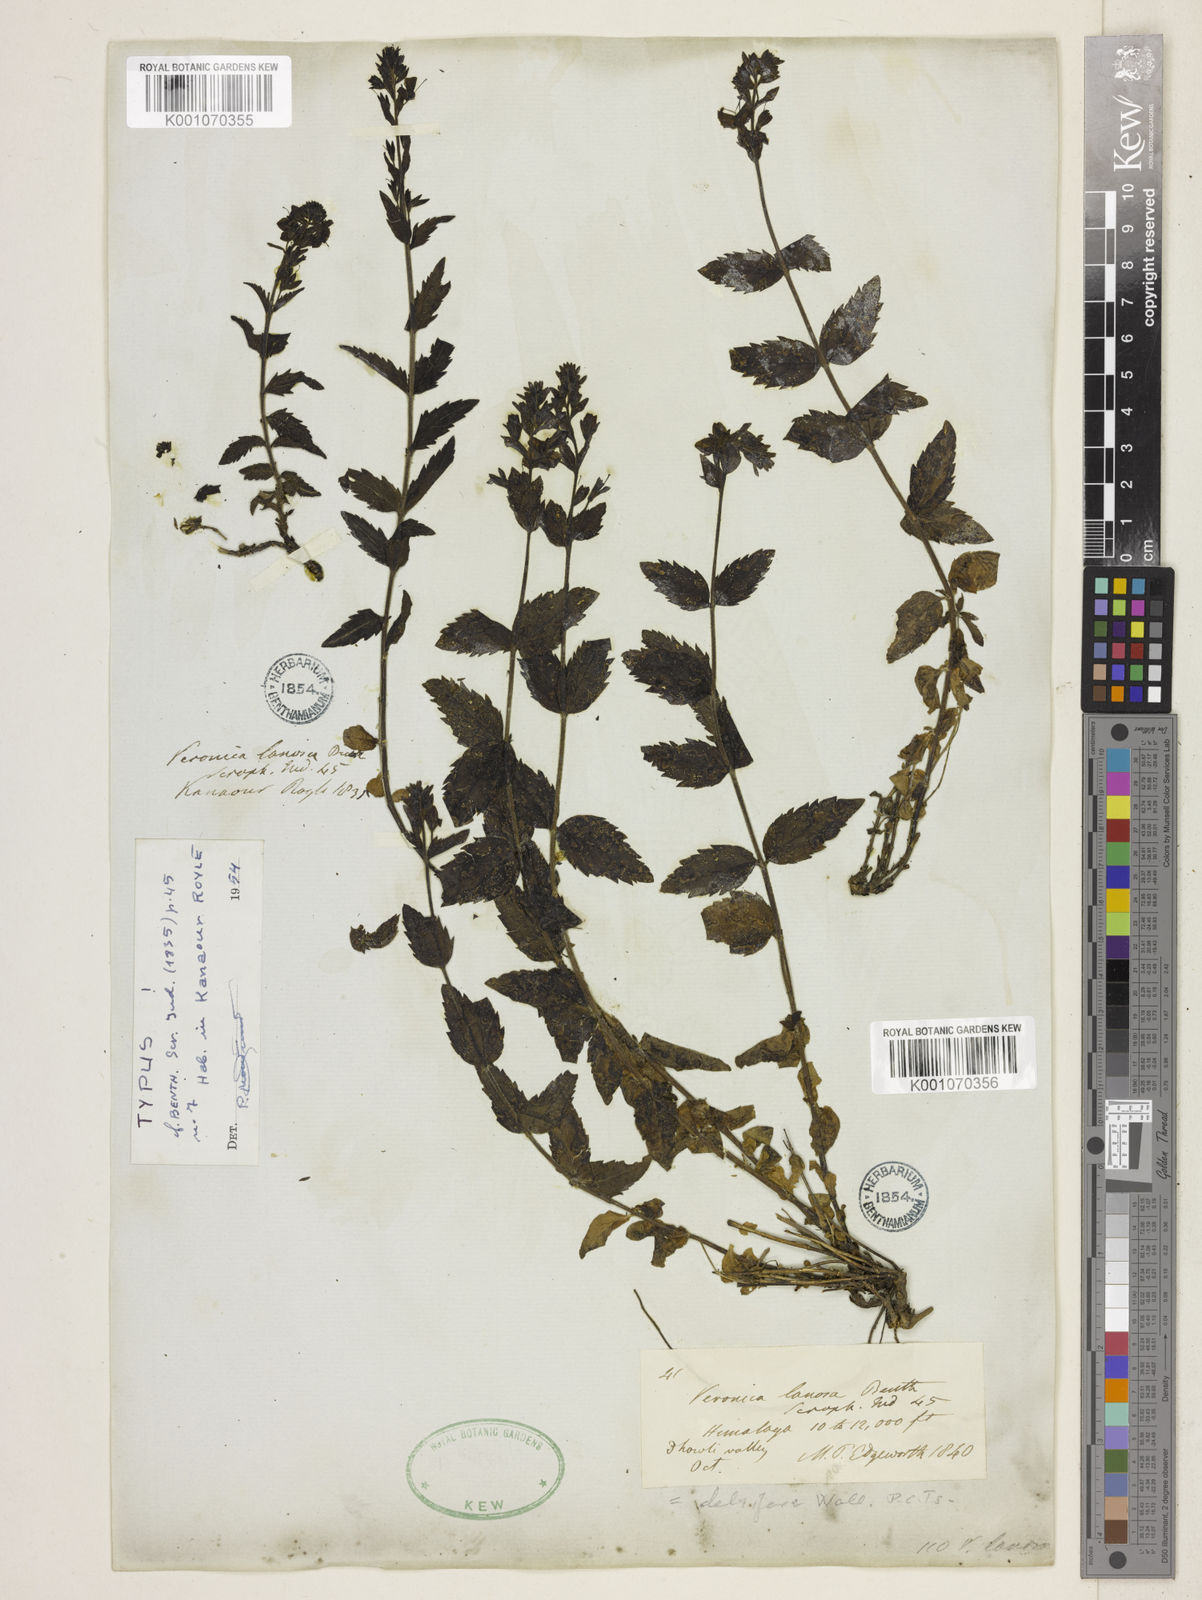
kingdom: Plantae
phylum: Tracheophyta
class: Magnoliopsida
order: Lamiales
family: Plantaginaceae
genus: Veronica
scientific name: Veronica lanosa
